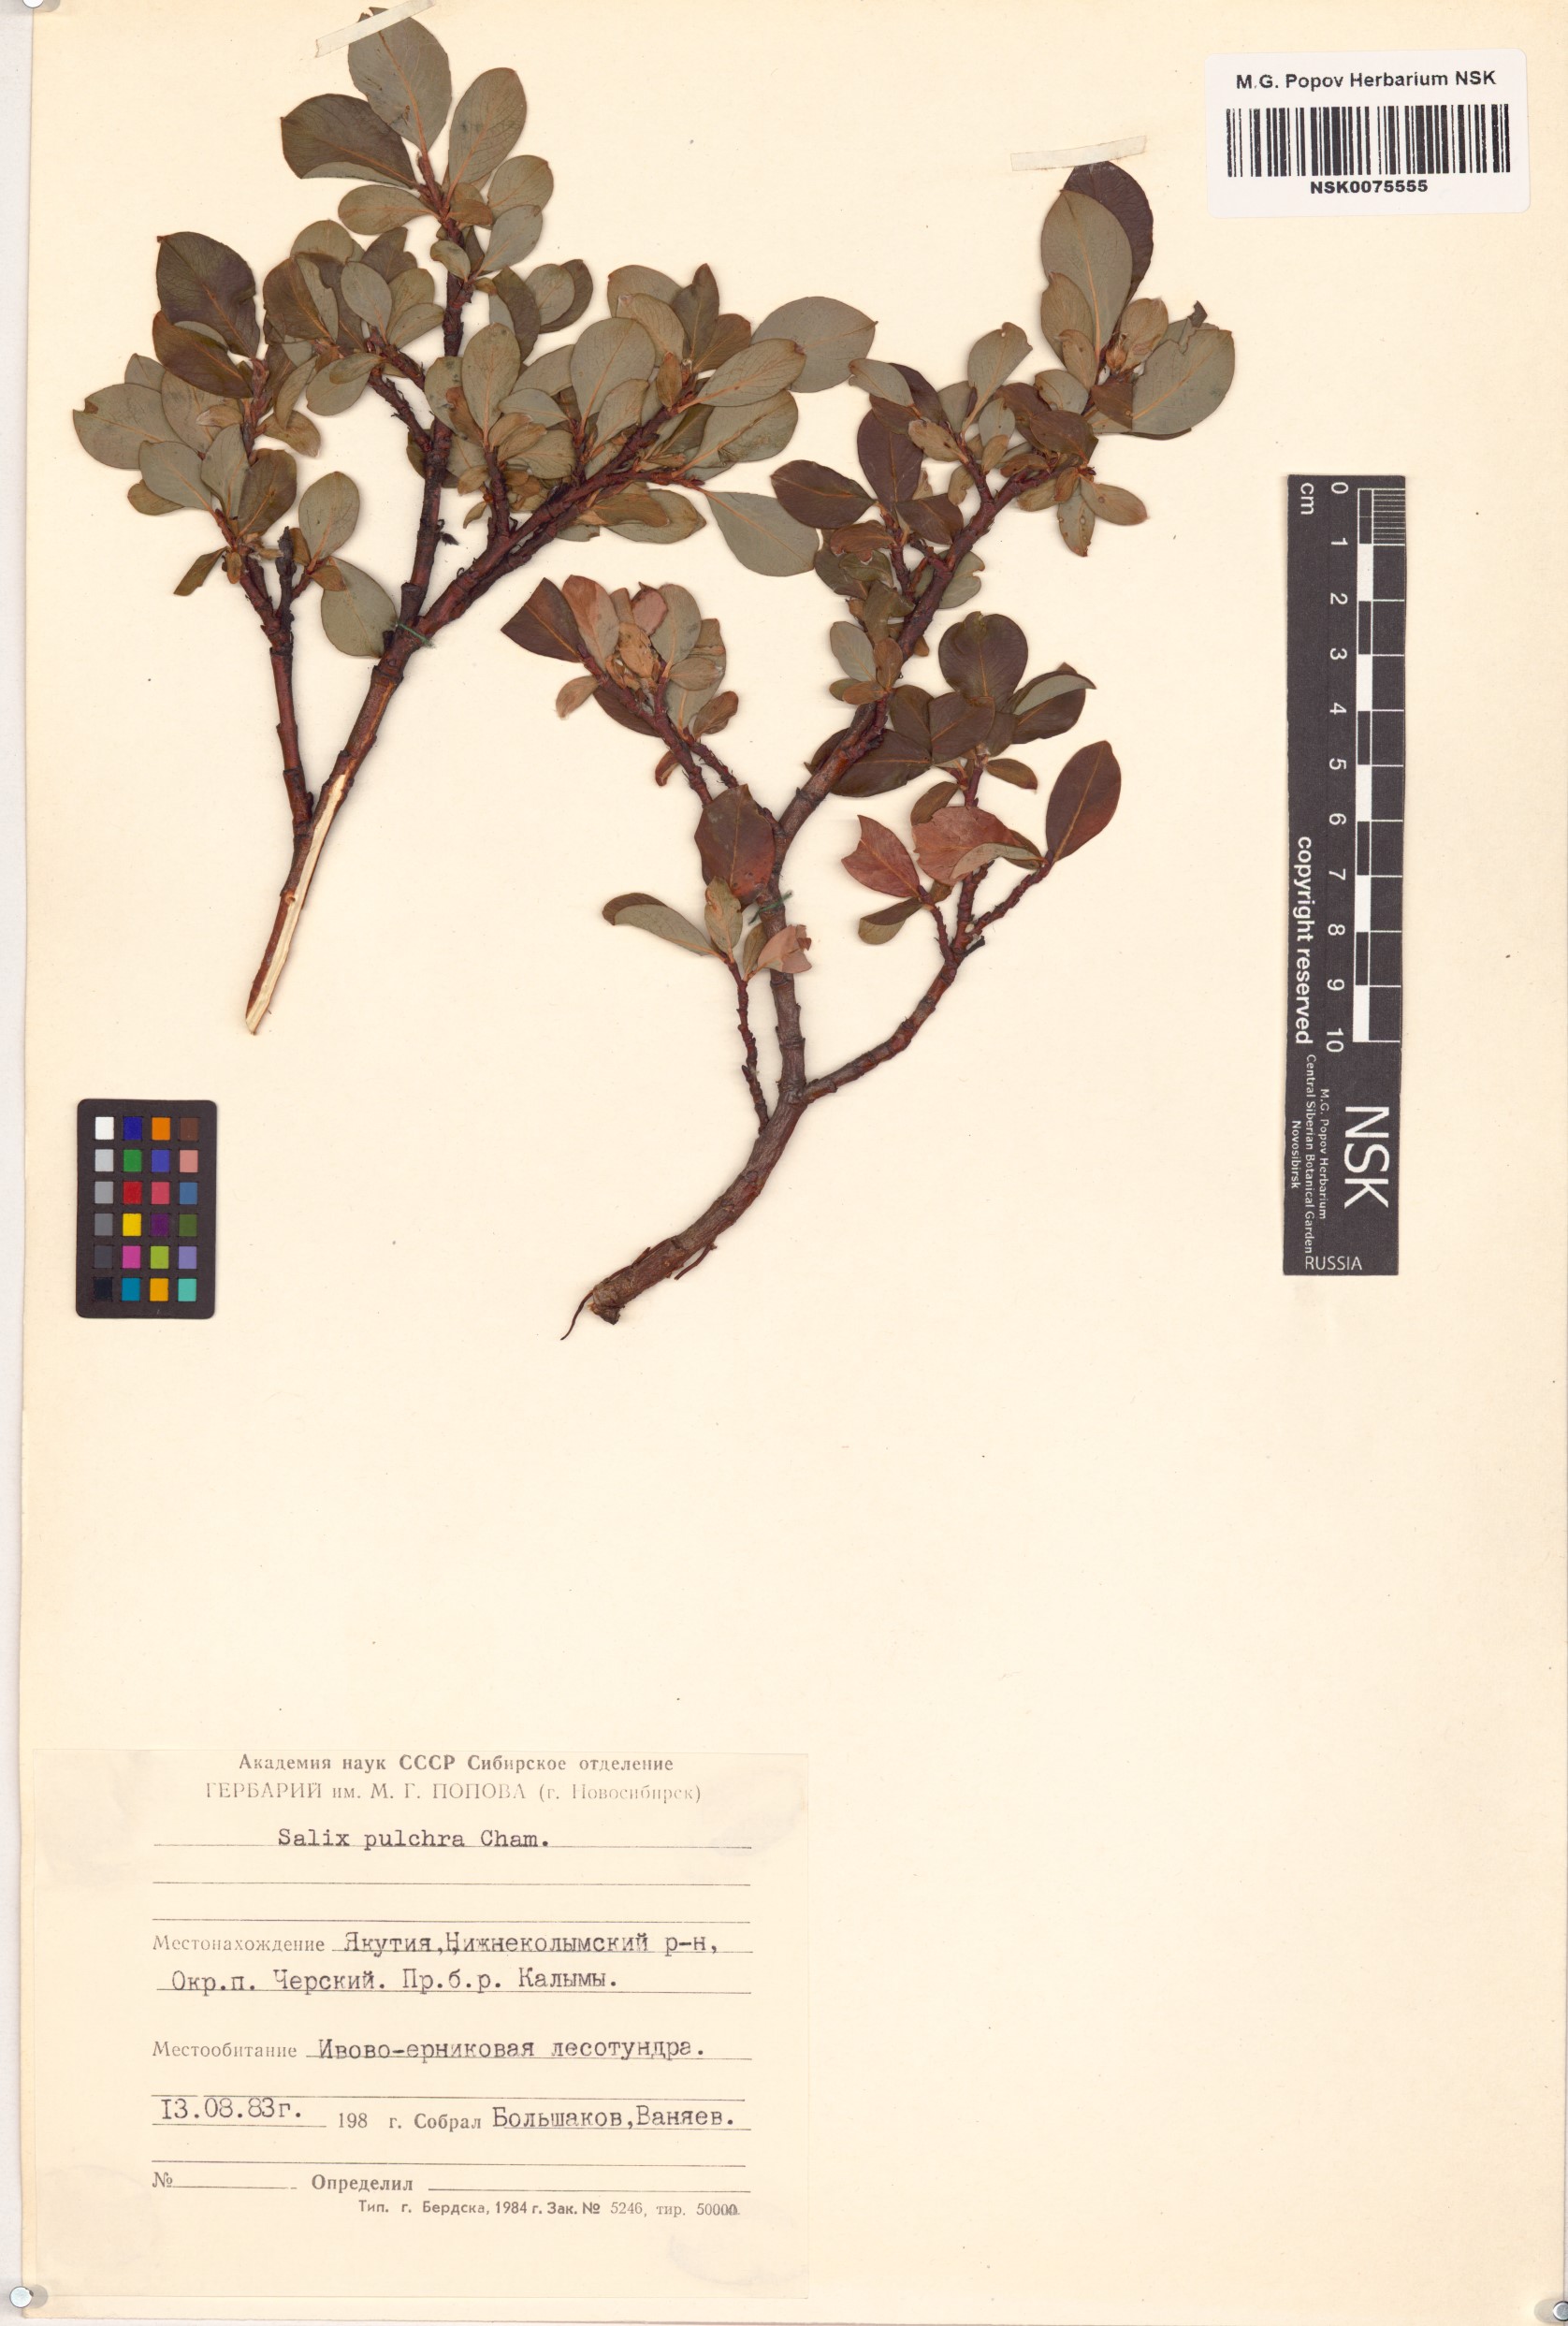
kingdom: Plantae
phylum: Tracheophyta
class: Magnoliopsida
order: Malpighiales
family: Salicaceae
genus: Salix
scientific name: Salix pulchra
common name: Diamond-leaved willow
